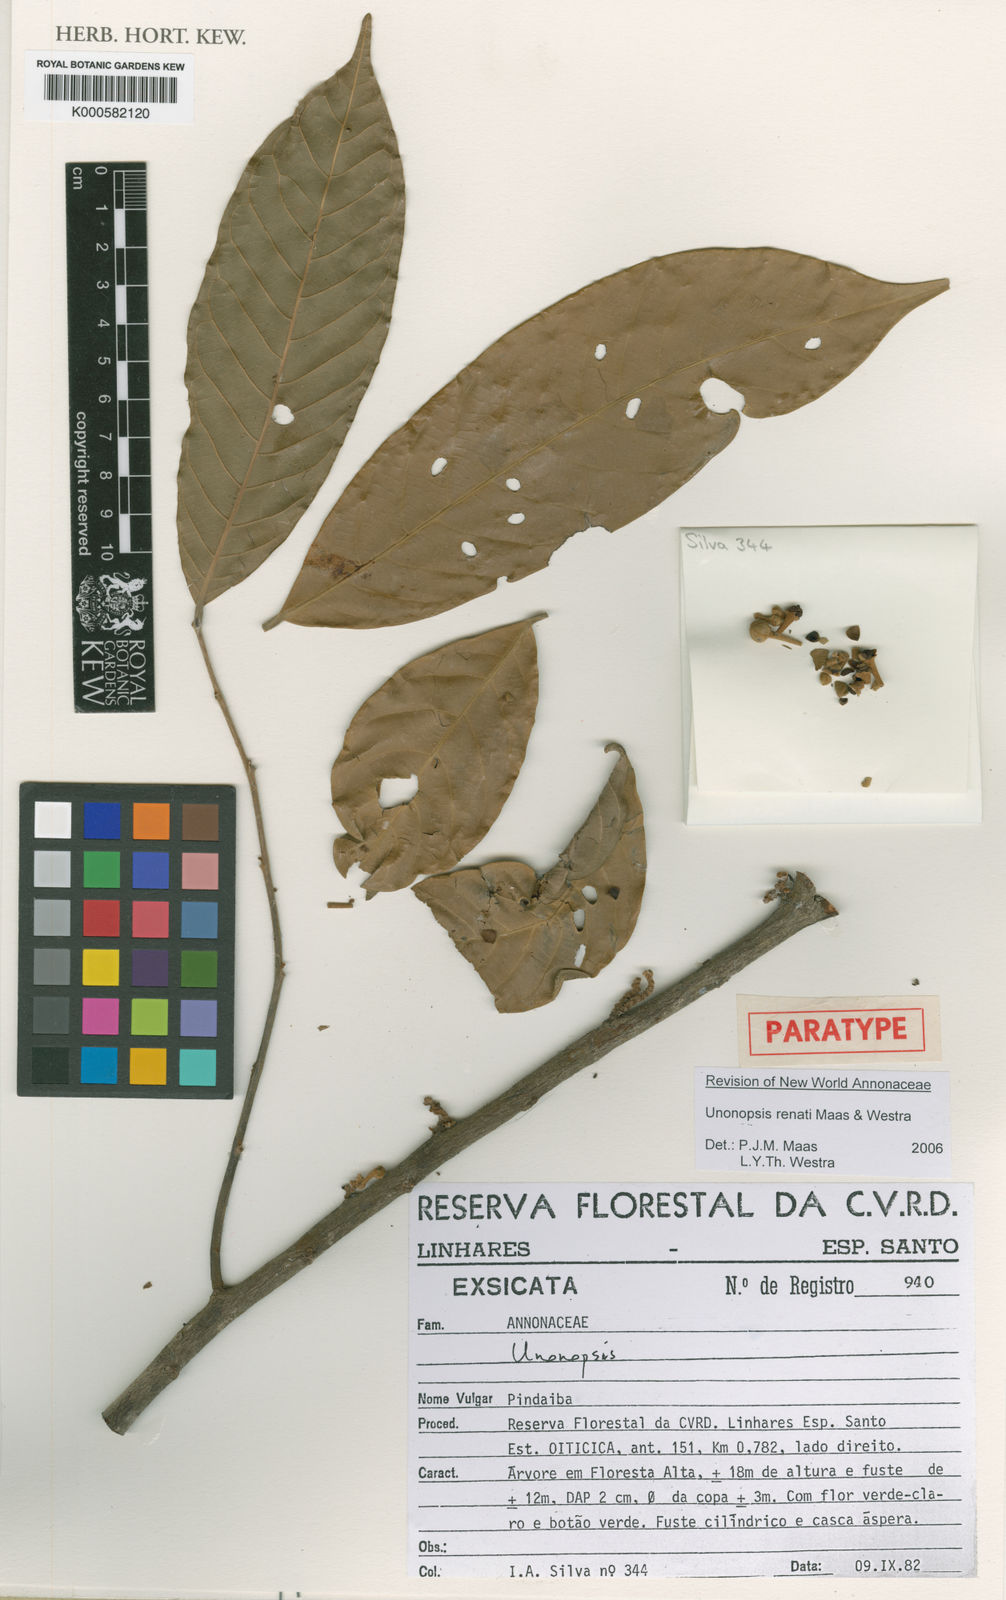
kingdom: Plantae
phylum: Tracheophyta
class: Magnoliopsida
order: Magnoliales
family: Annonaceae
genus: Unonopsis
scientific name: Unonopsis
